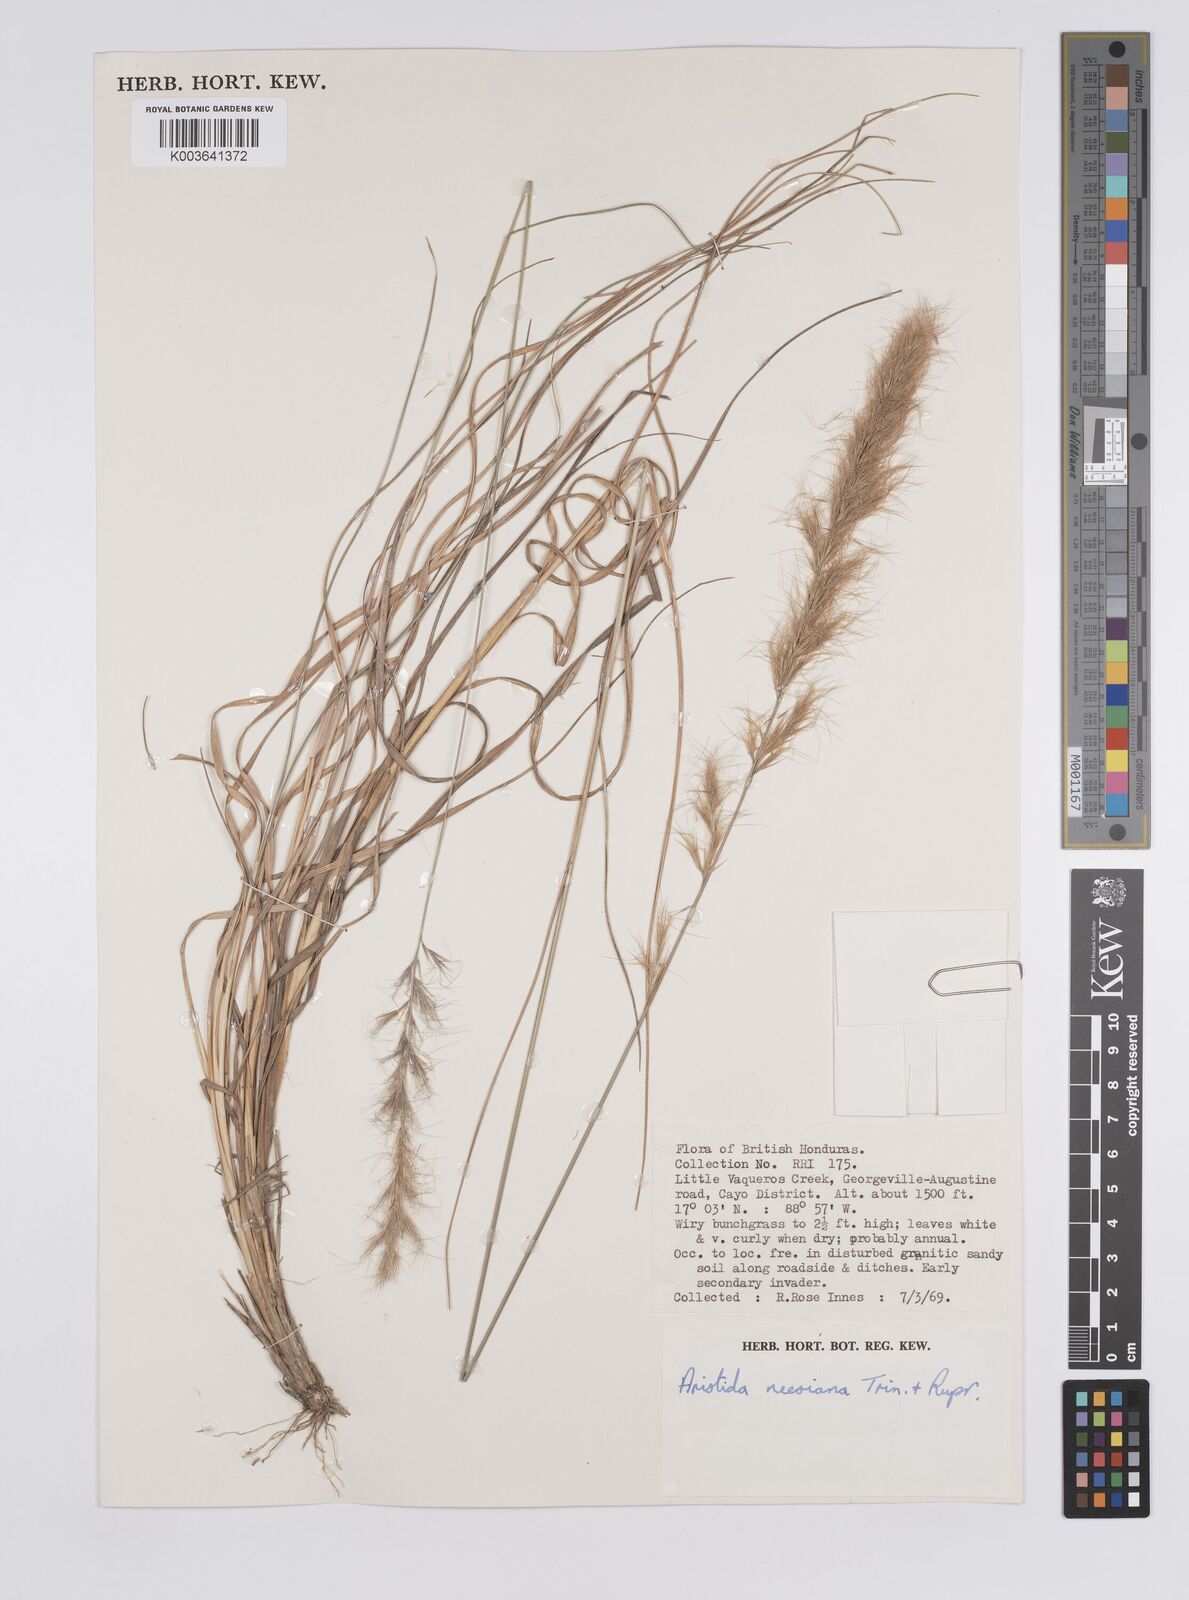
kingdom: Plantae
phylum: Tracheophyta
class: Liliopsida
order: Poales
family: Poaceae
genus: Aristida
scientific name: Aristida recurvata
